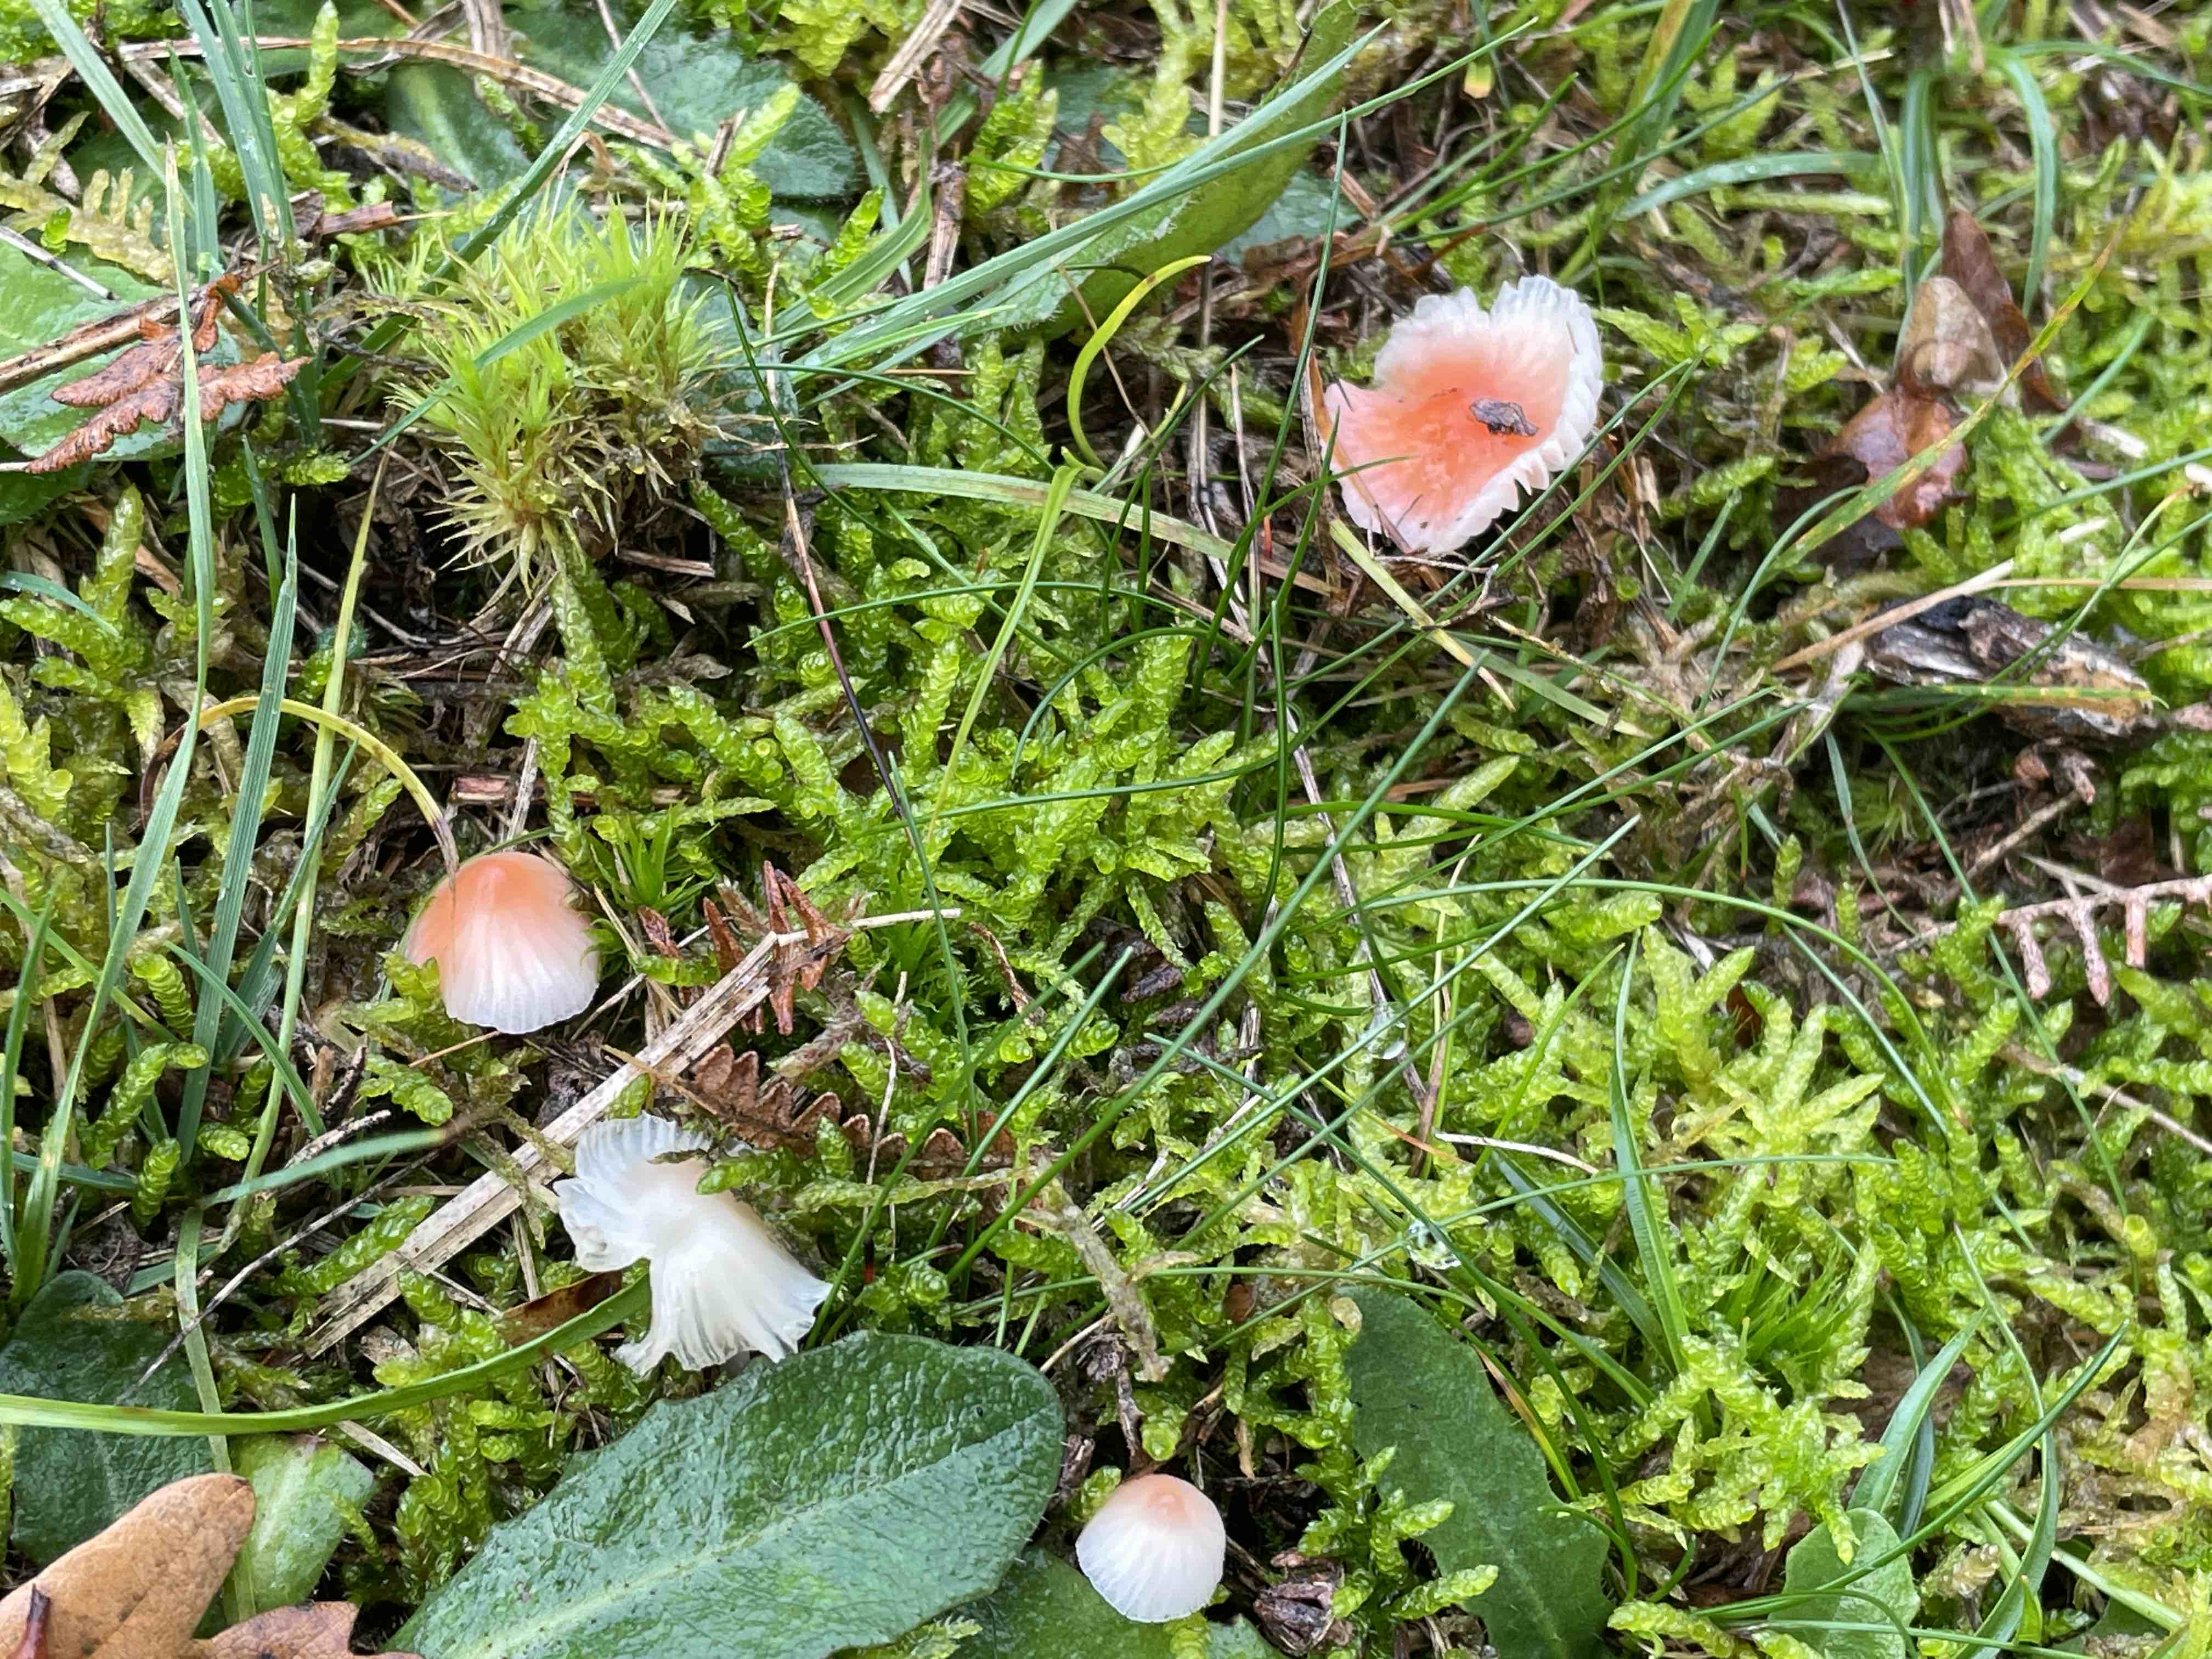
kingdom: Fungi
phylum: Basidiomycota
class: Agaricomycetes
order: Agaricales
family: Mycenaceae
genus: Atheniella
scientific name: Atheniella adonis
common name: rønnerød huesvamp
